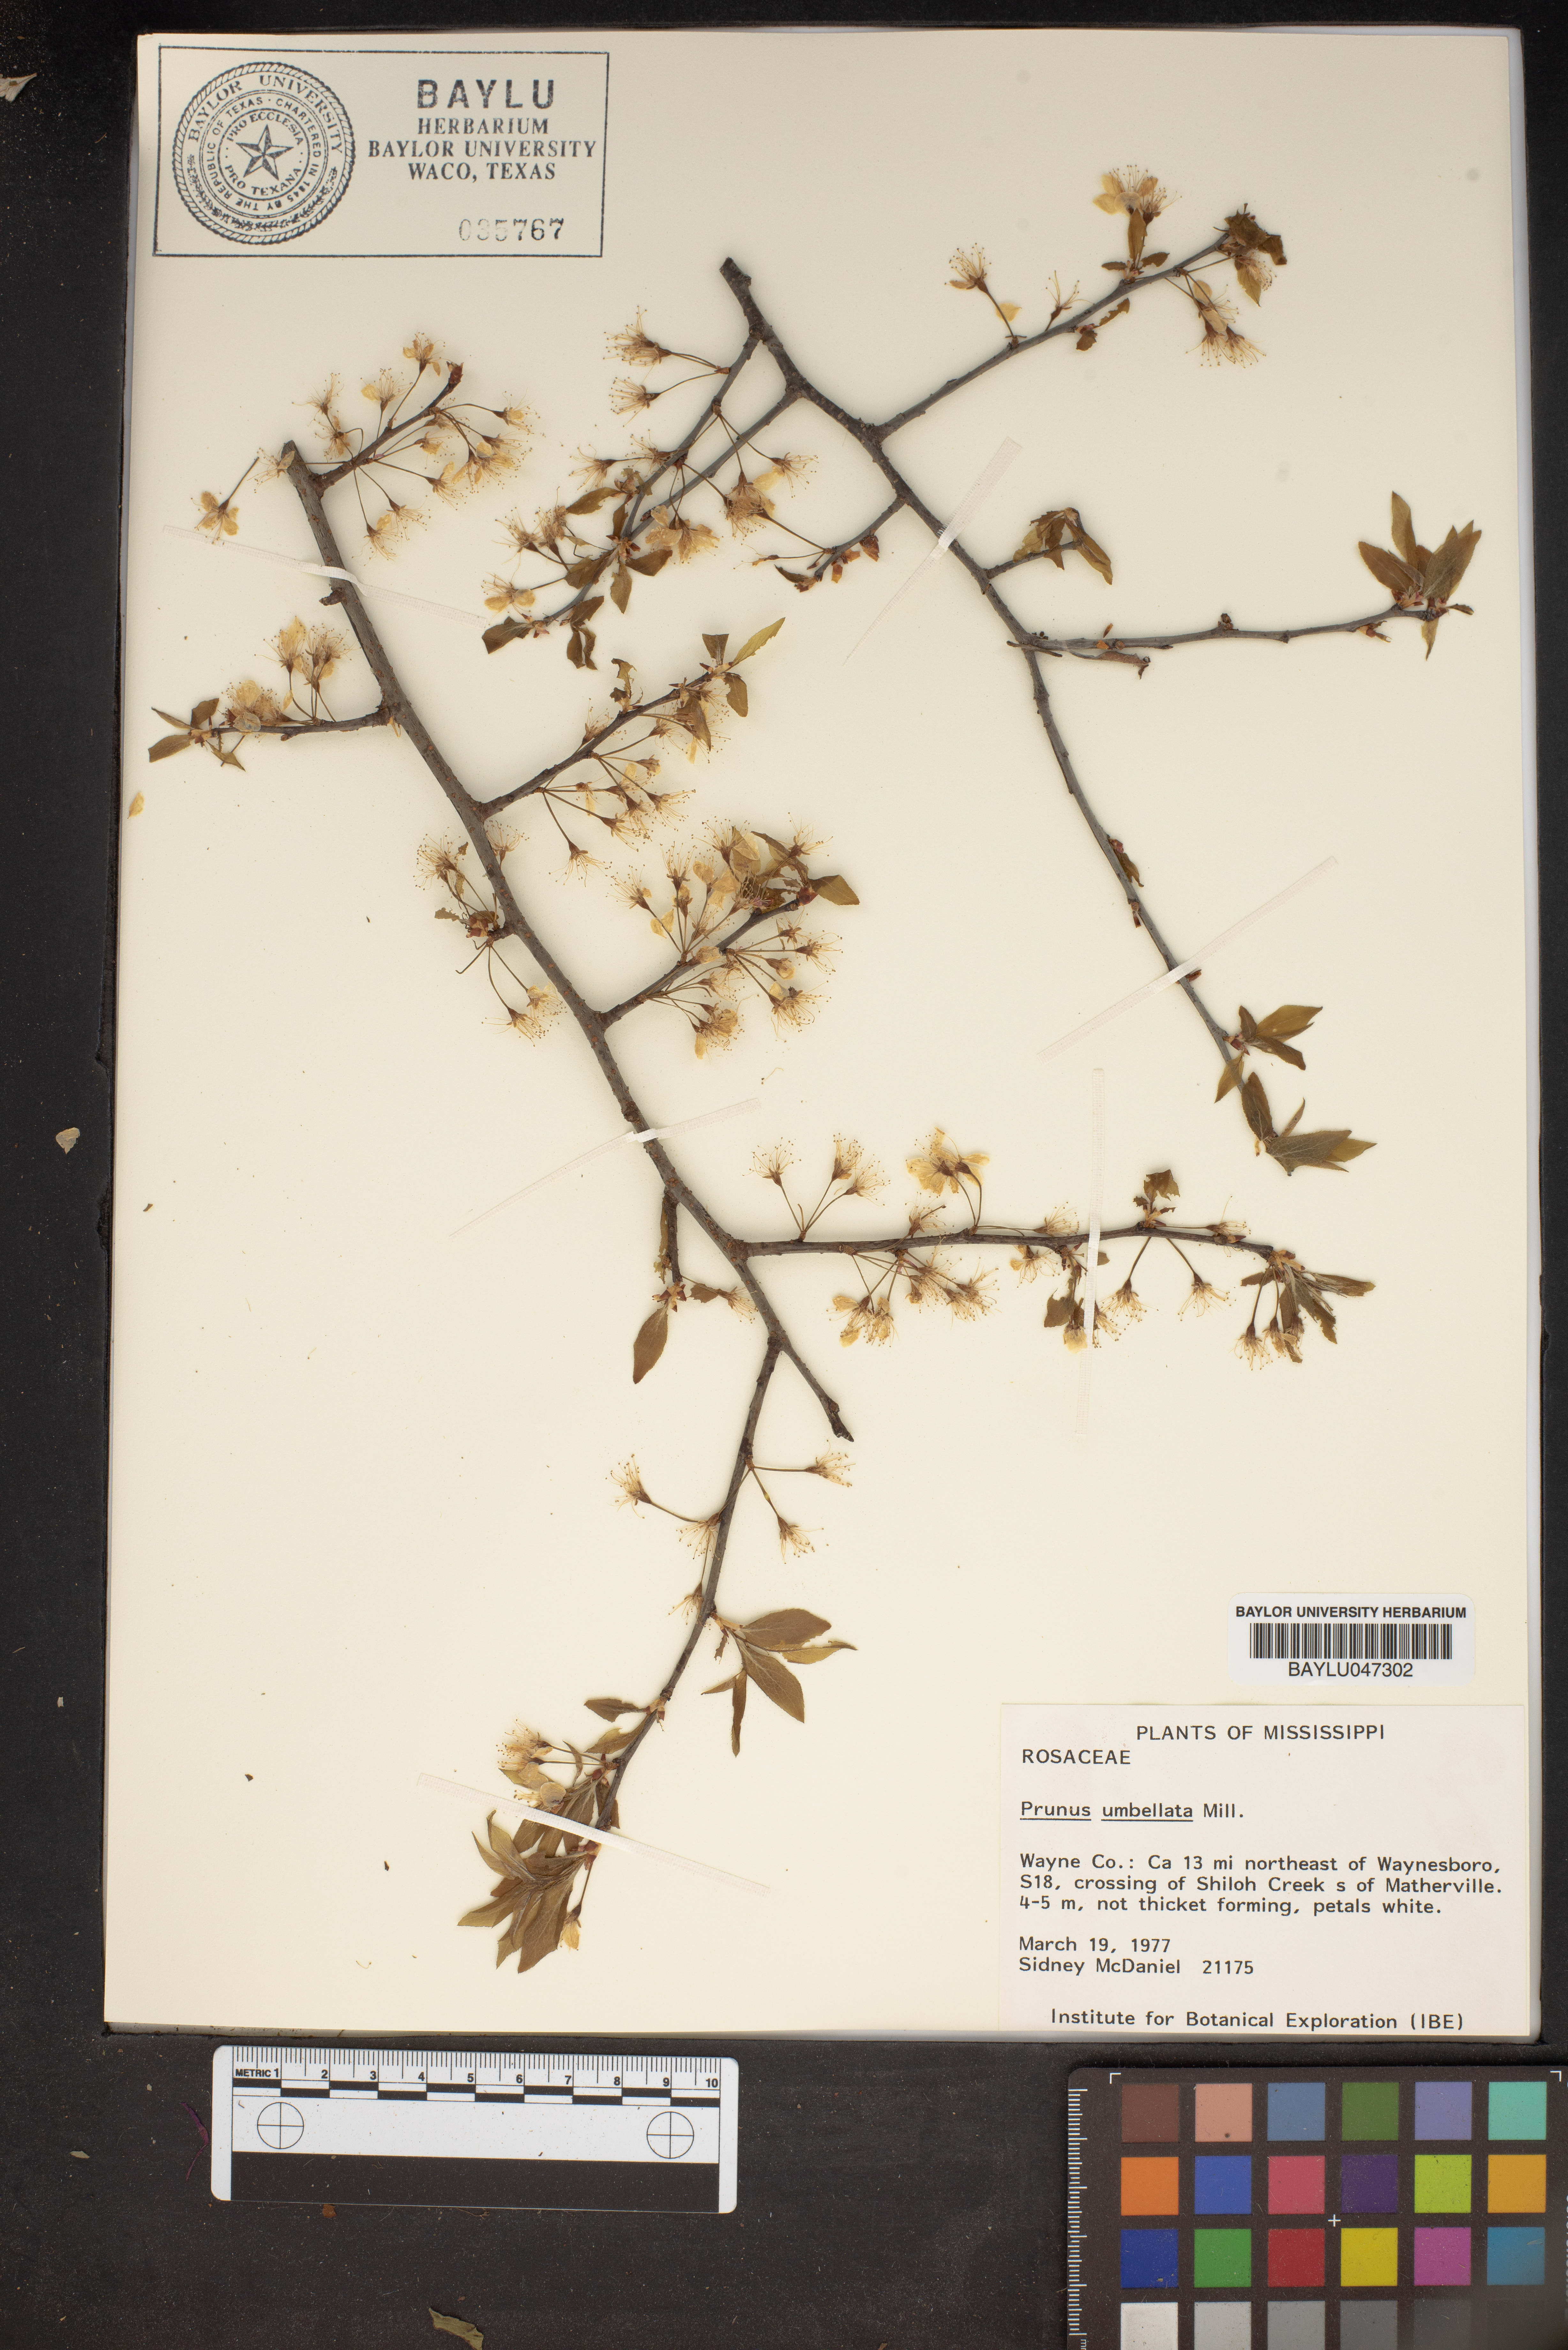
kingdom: Plantae
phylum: Tracheophyta
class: Magnoliopsida
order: Rosales
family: Rosaceae
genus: Prunus
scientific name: Prunus umbellata
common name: Allegheny plum
